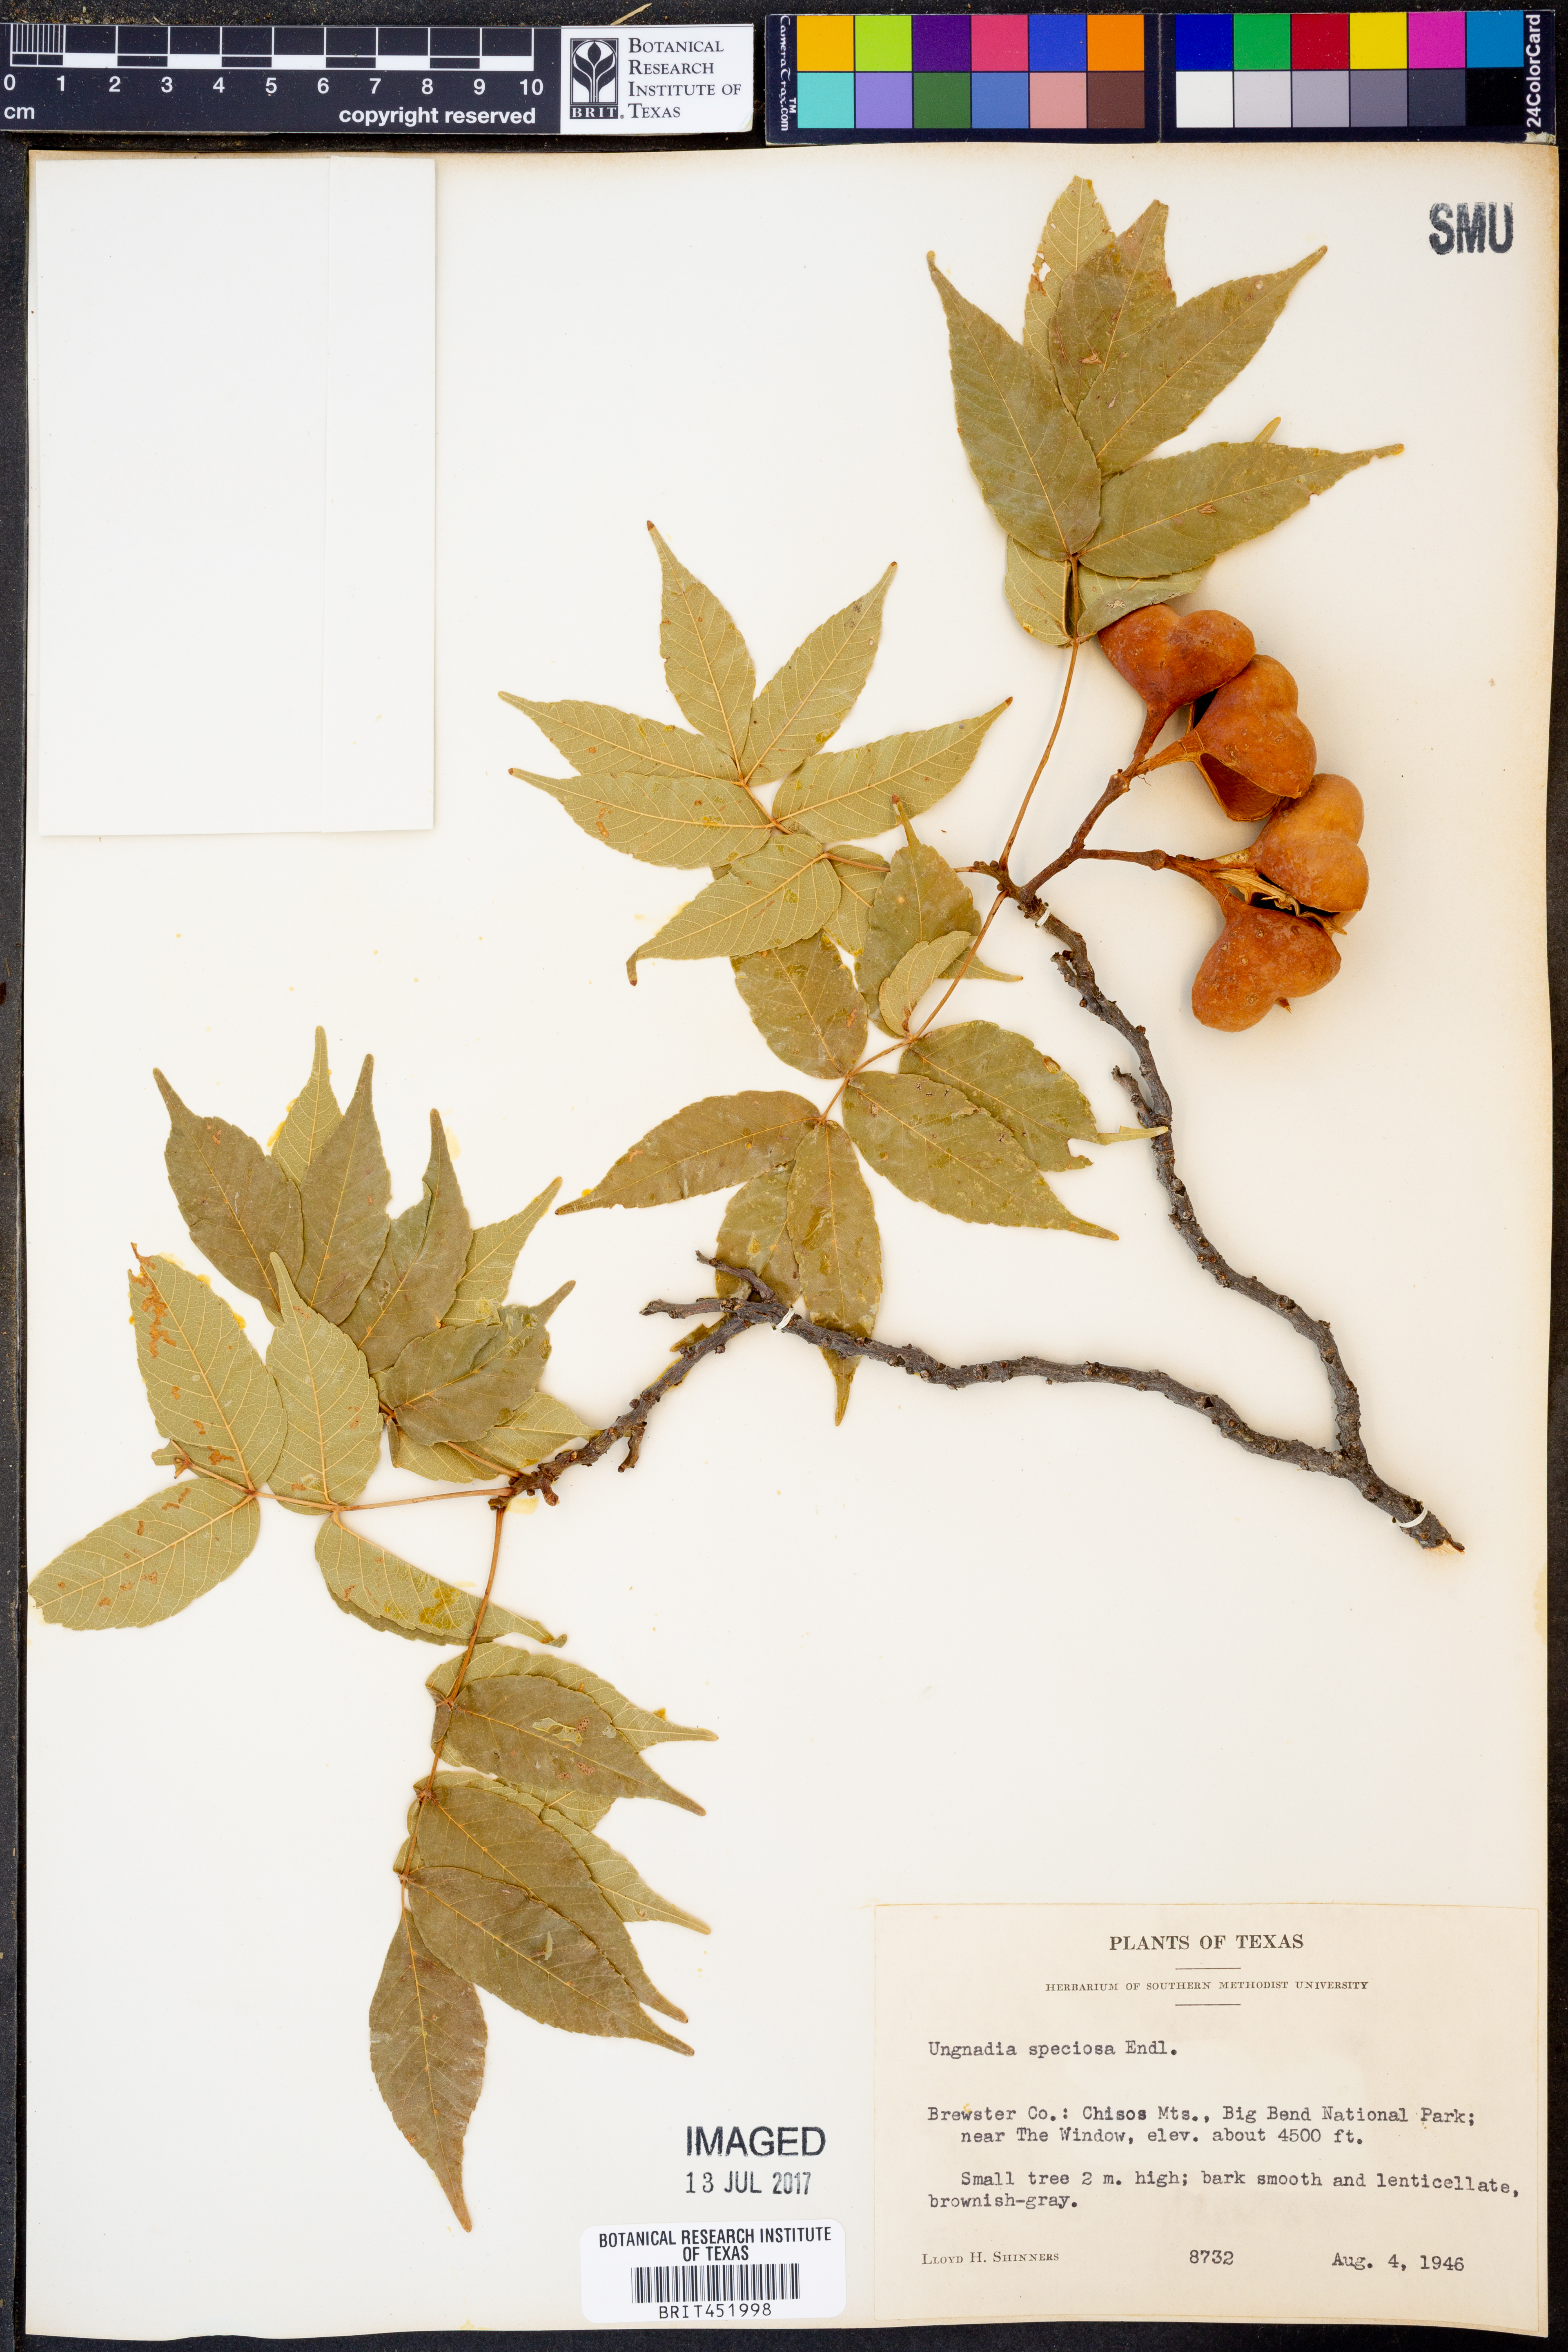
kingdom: Plantae
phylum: Tracheophyta
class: Magnoliopsida
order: Sapindales
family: Sapindaceae
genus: Ungnadia
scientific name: Ungnadia speciosa
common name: Texas-buckeye
